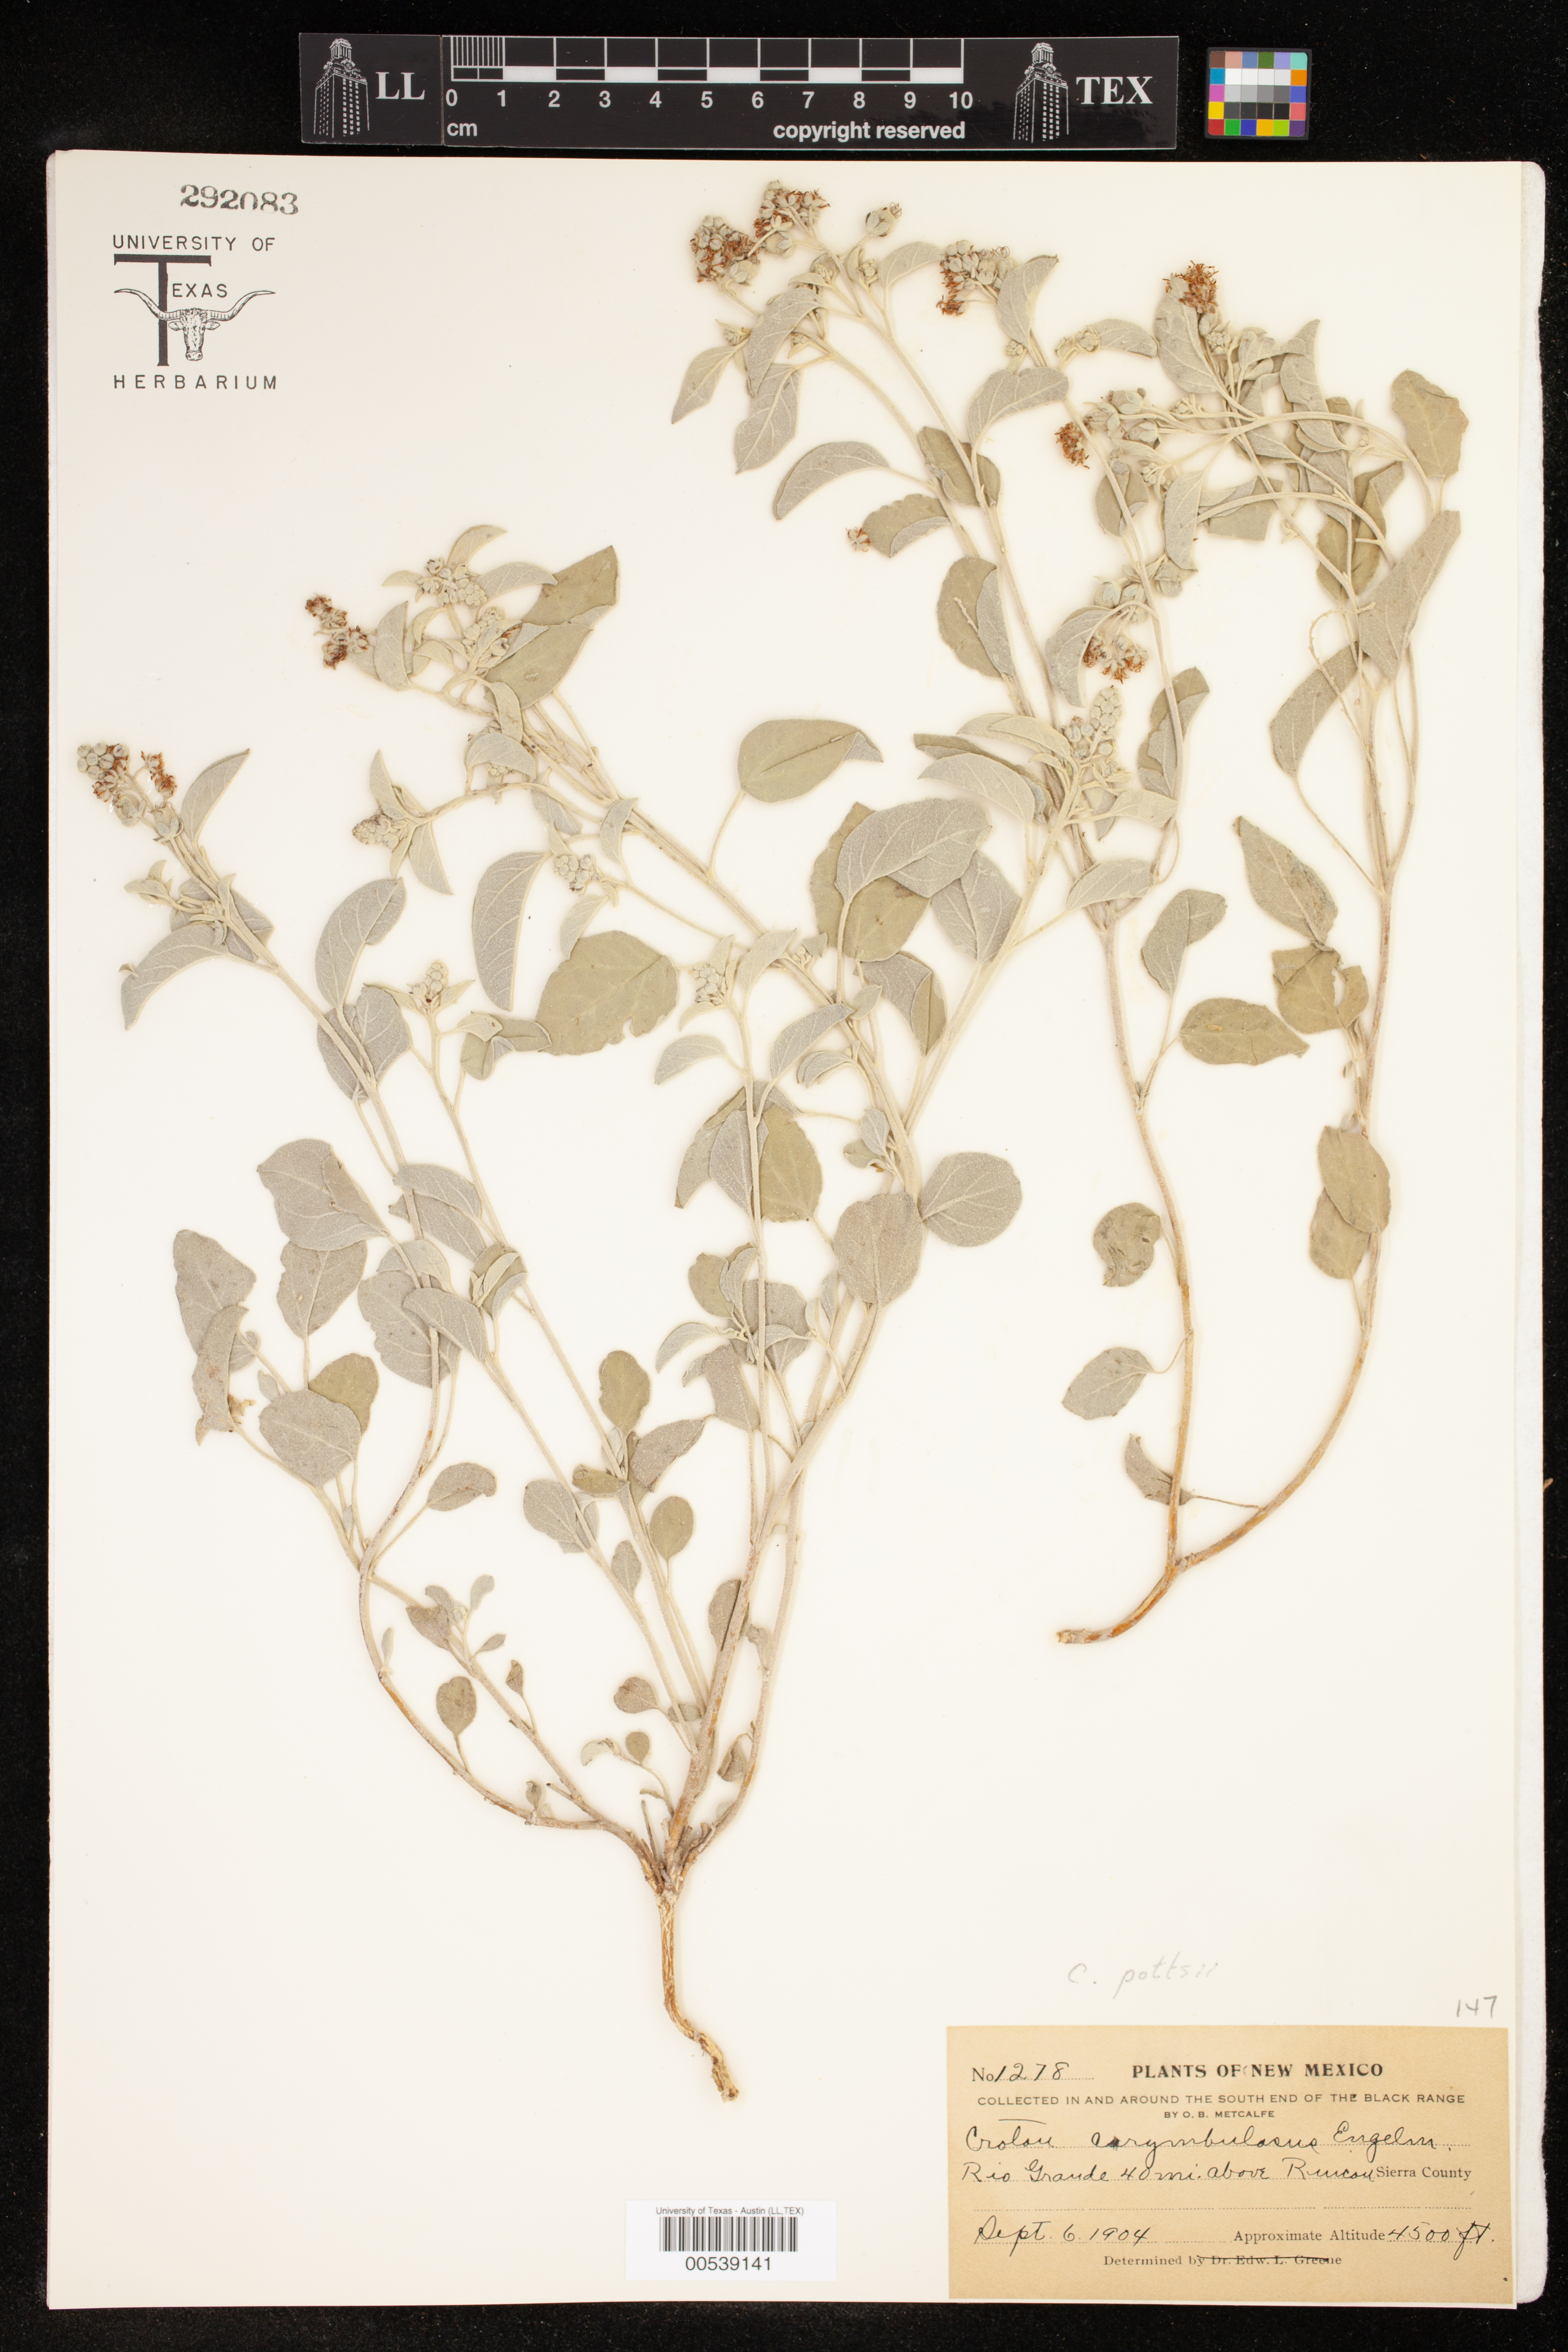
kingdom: Plantae
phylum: Tracheophyta
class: Magnoliopsida
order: Malpighiales
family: Euphorbiaceae
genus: Croton
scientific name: Croton pottsii
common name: Leatherweed
